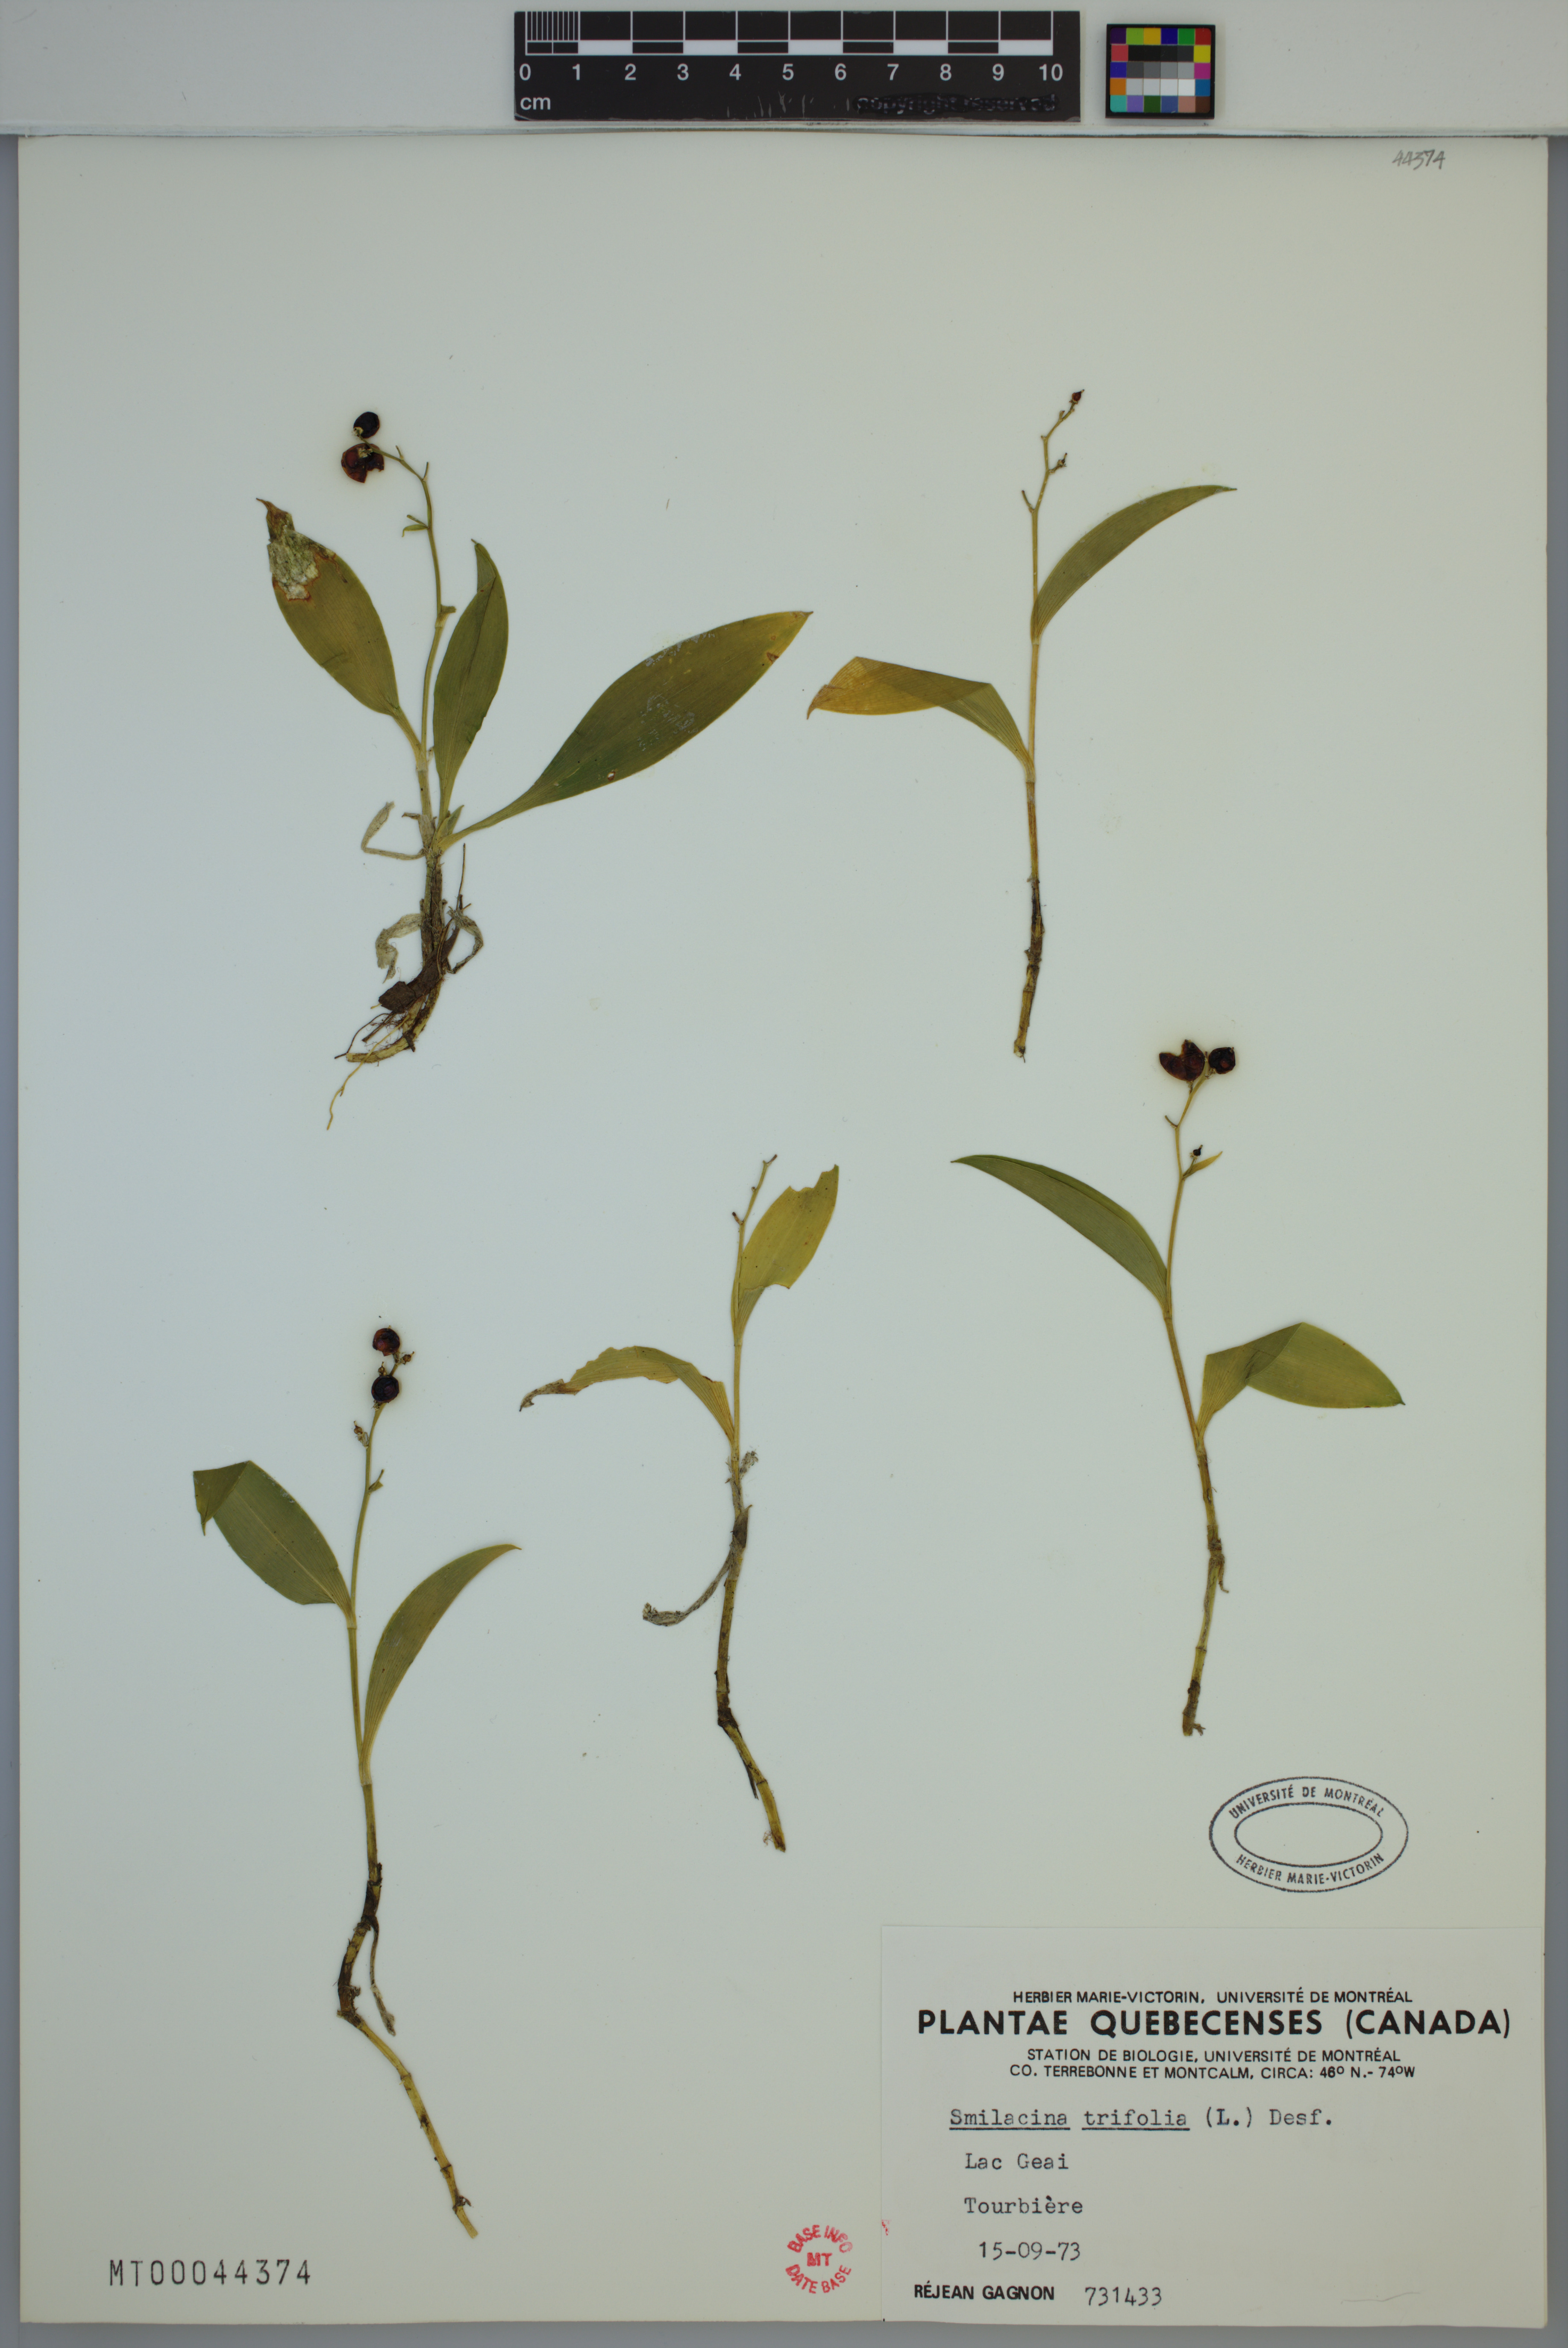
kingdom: Plantae
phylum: Tracheophyta
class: Liliopsida
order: Asparagales
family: Asparagaceae
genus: Maianthemum
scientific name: Maianthemum trifolium
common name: Swamp false solomon's seal
